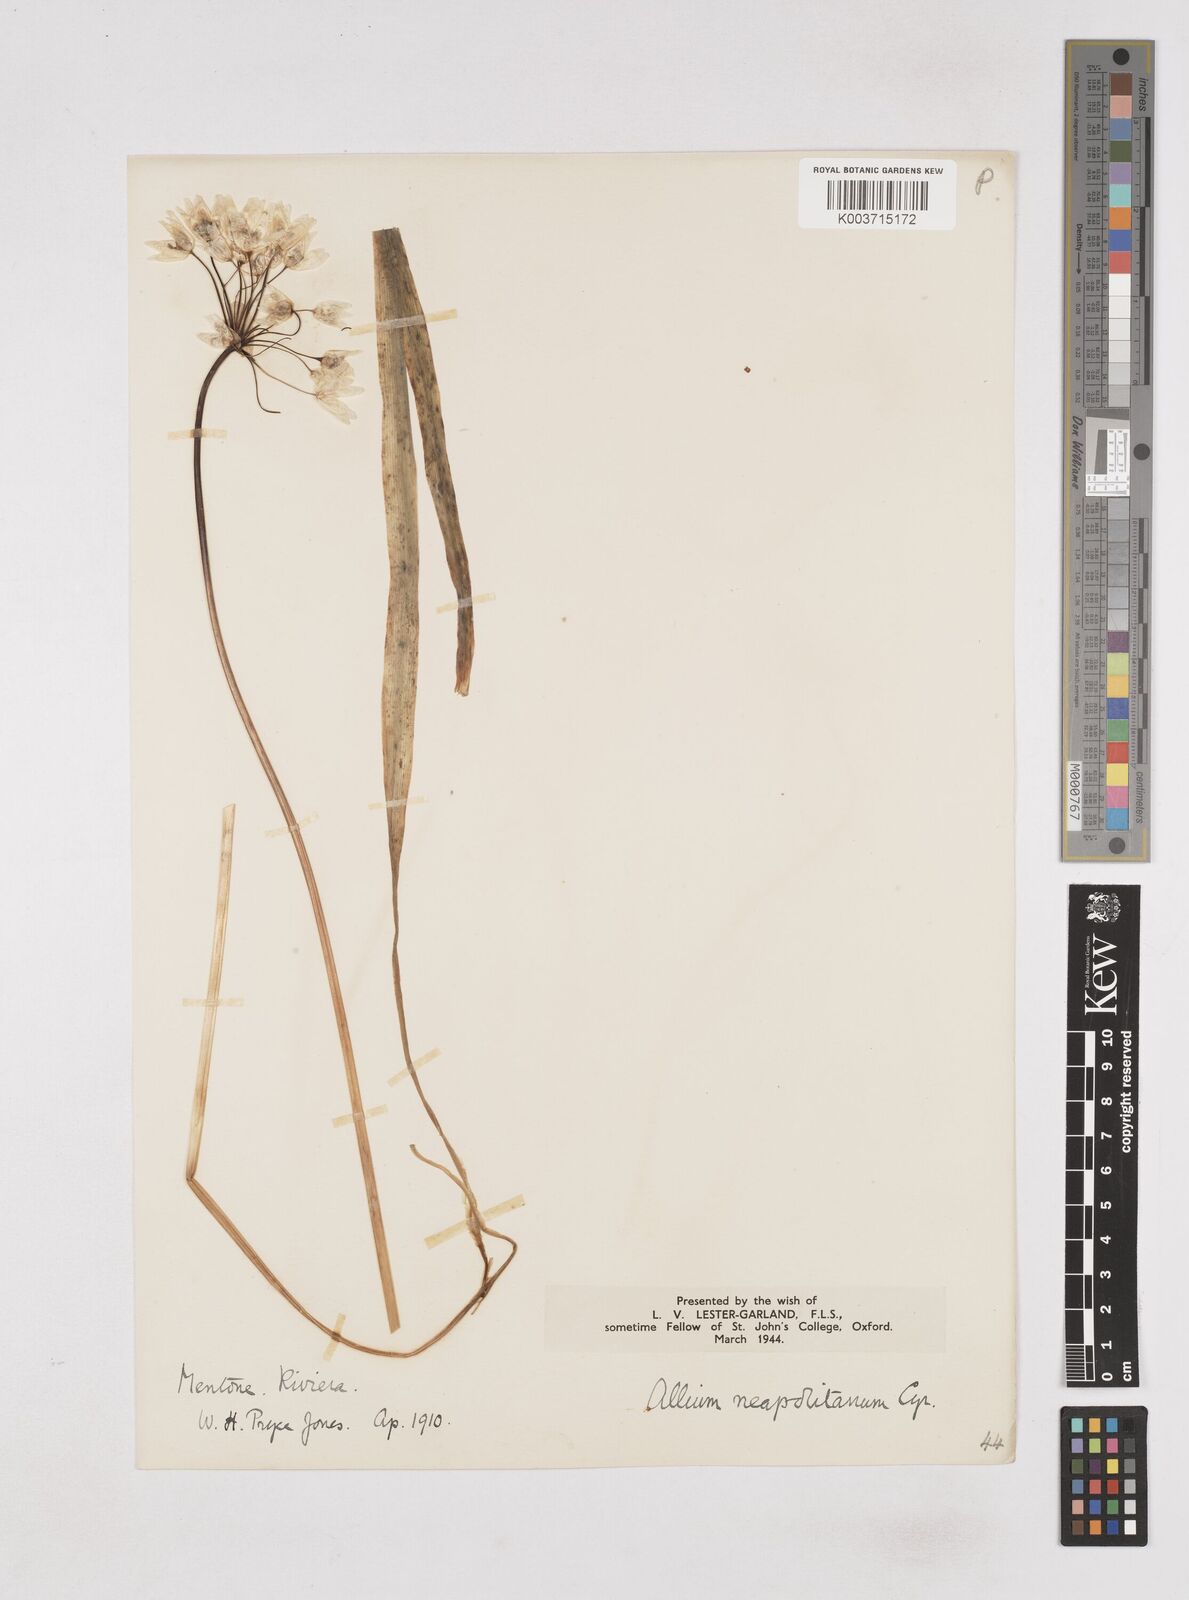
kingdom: Plantae
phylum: Tracheophyta
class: Liliopsida
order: Asparagales
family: Amaryllidaceae
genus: Allium
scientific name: Allium neapolitanum
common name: Neapolitan garlic
